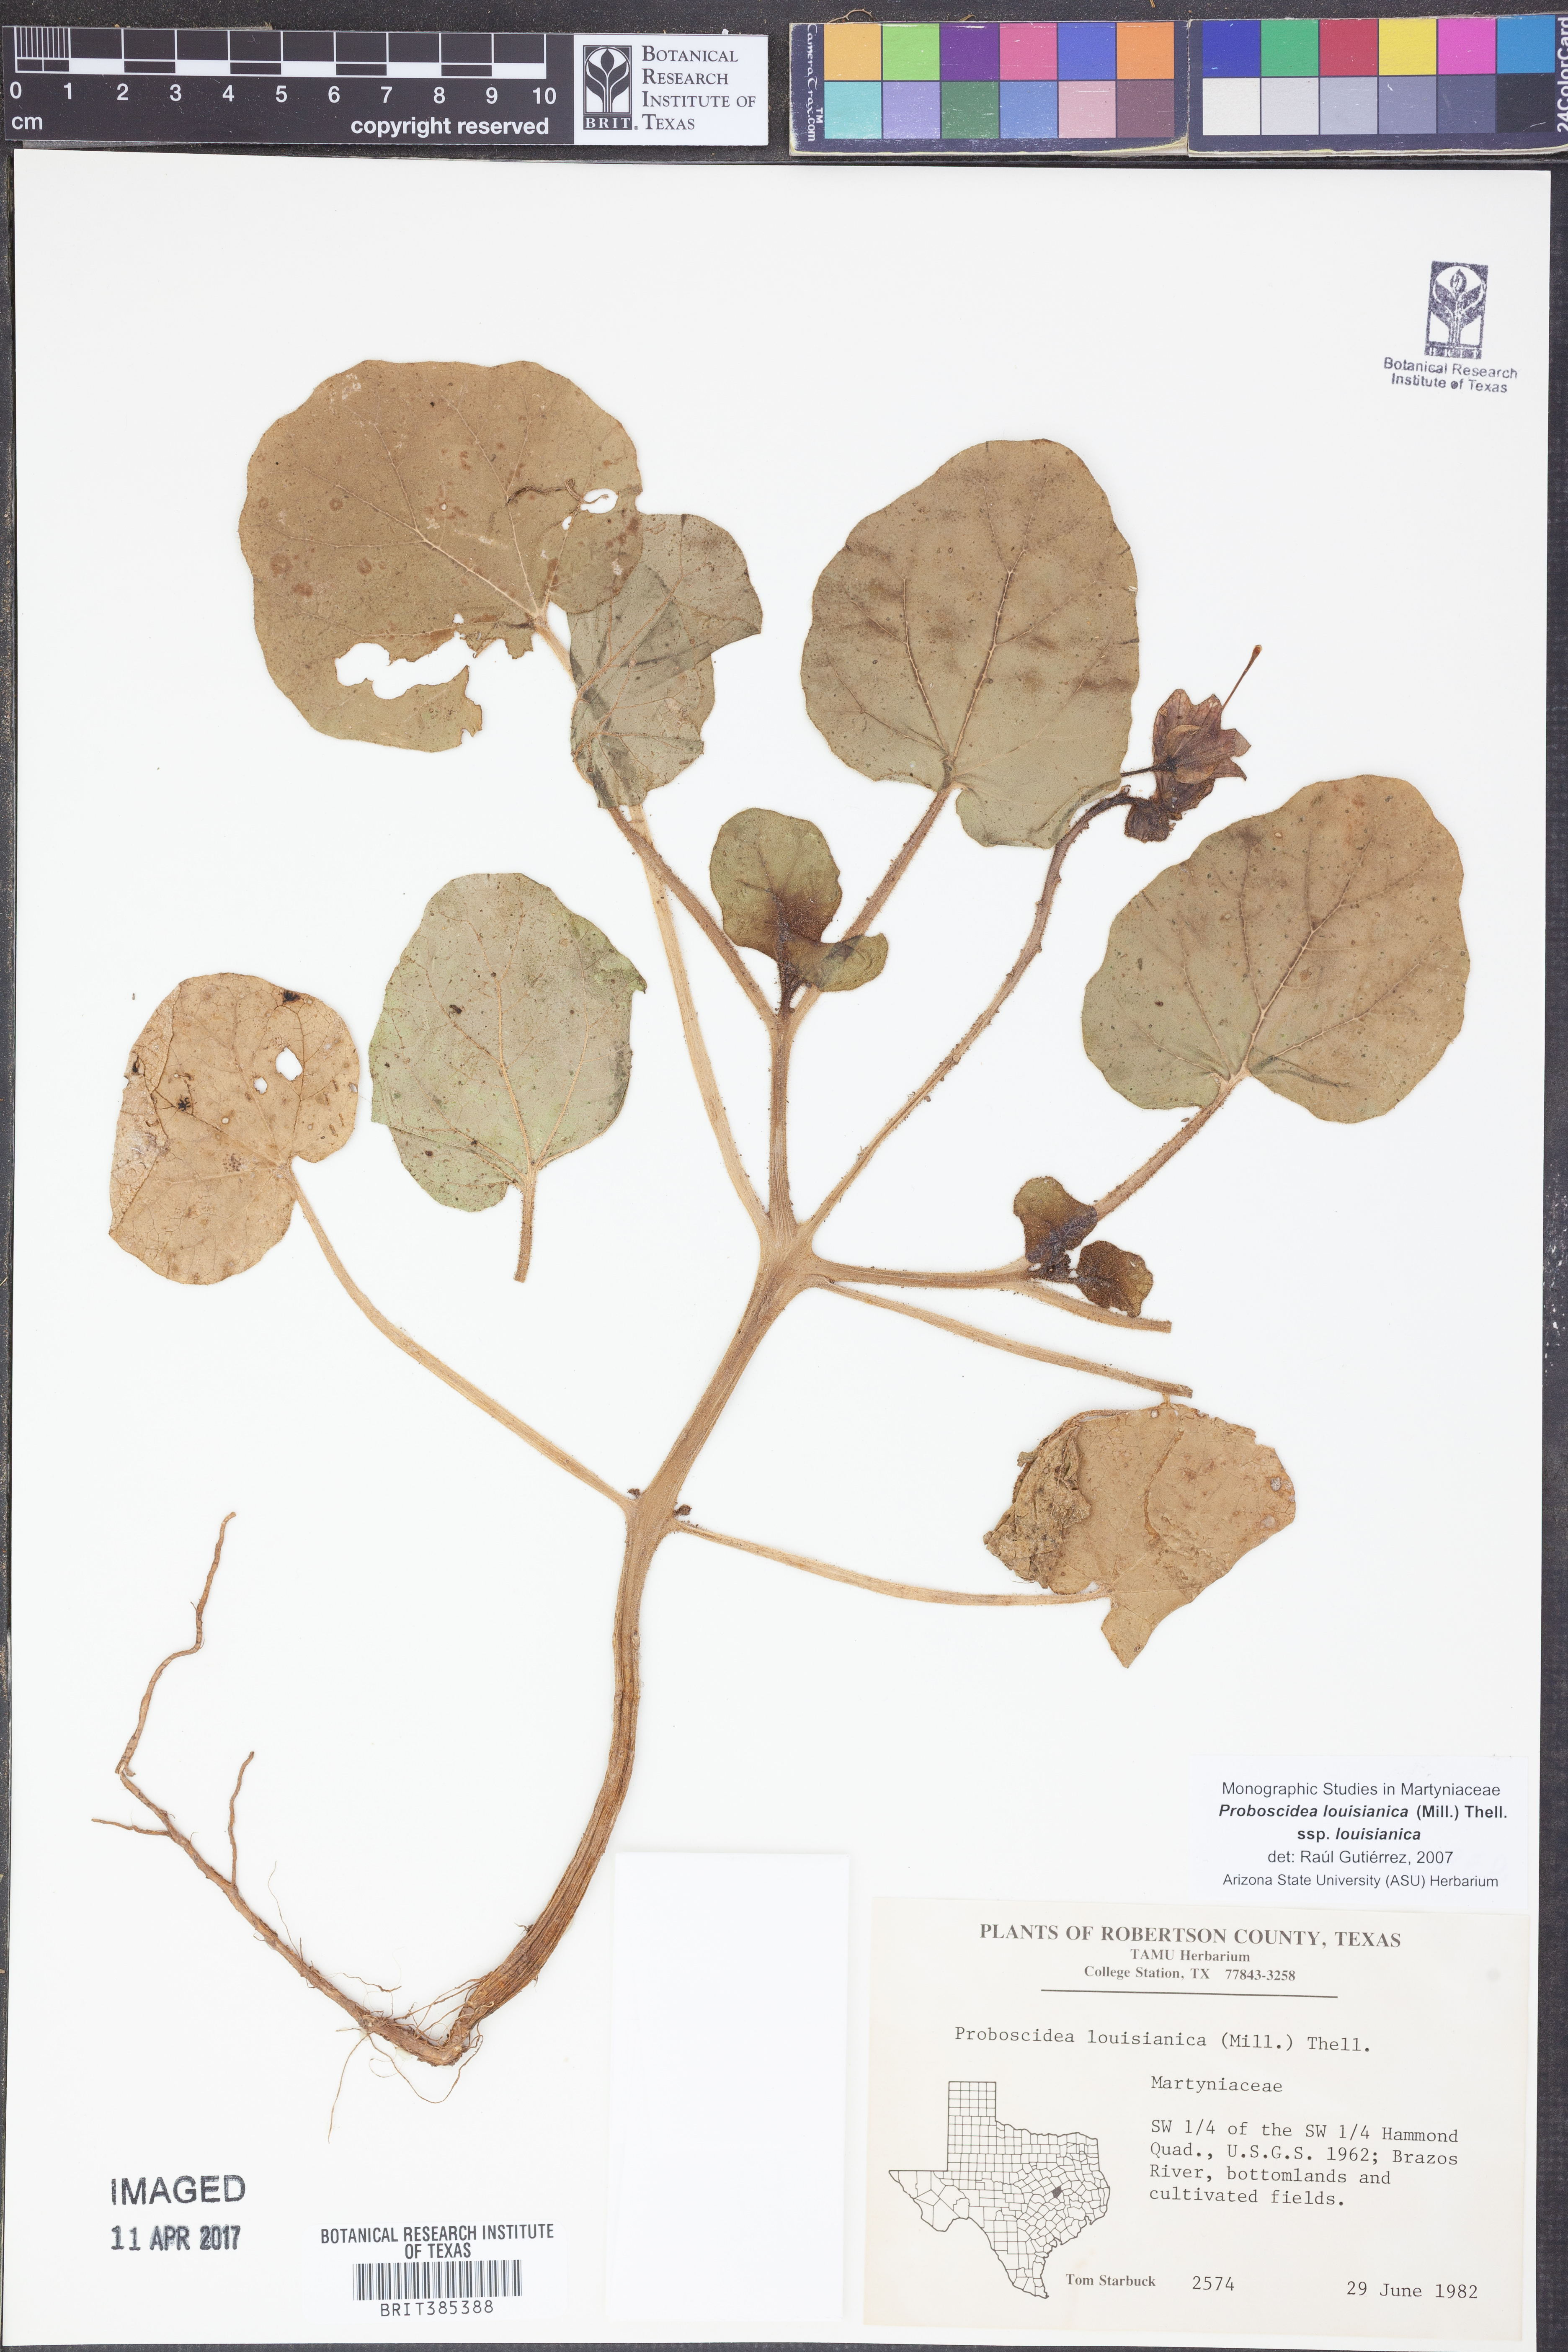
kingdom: Plantae
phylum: Tracheophyta
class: Magnoliopsida
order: Lamiales
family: Martyniaceae
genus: Proboscidea
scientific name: Proboscidea louisianica
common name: Elephant tusks
